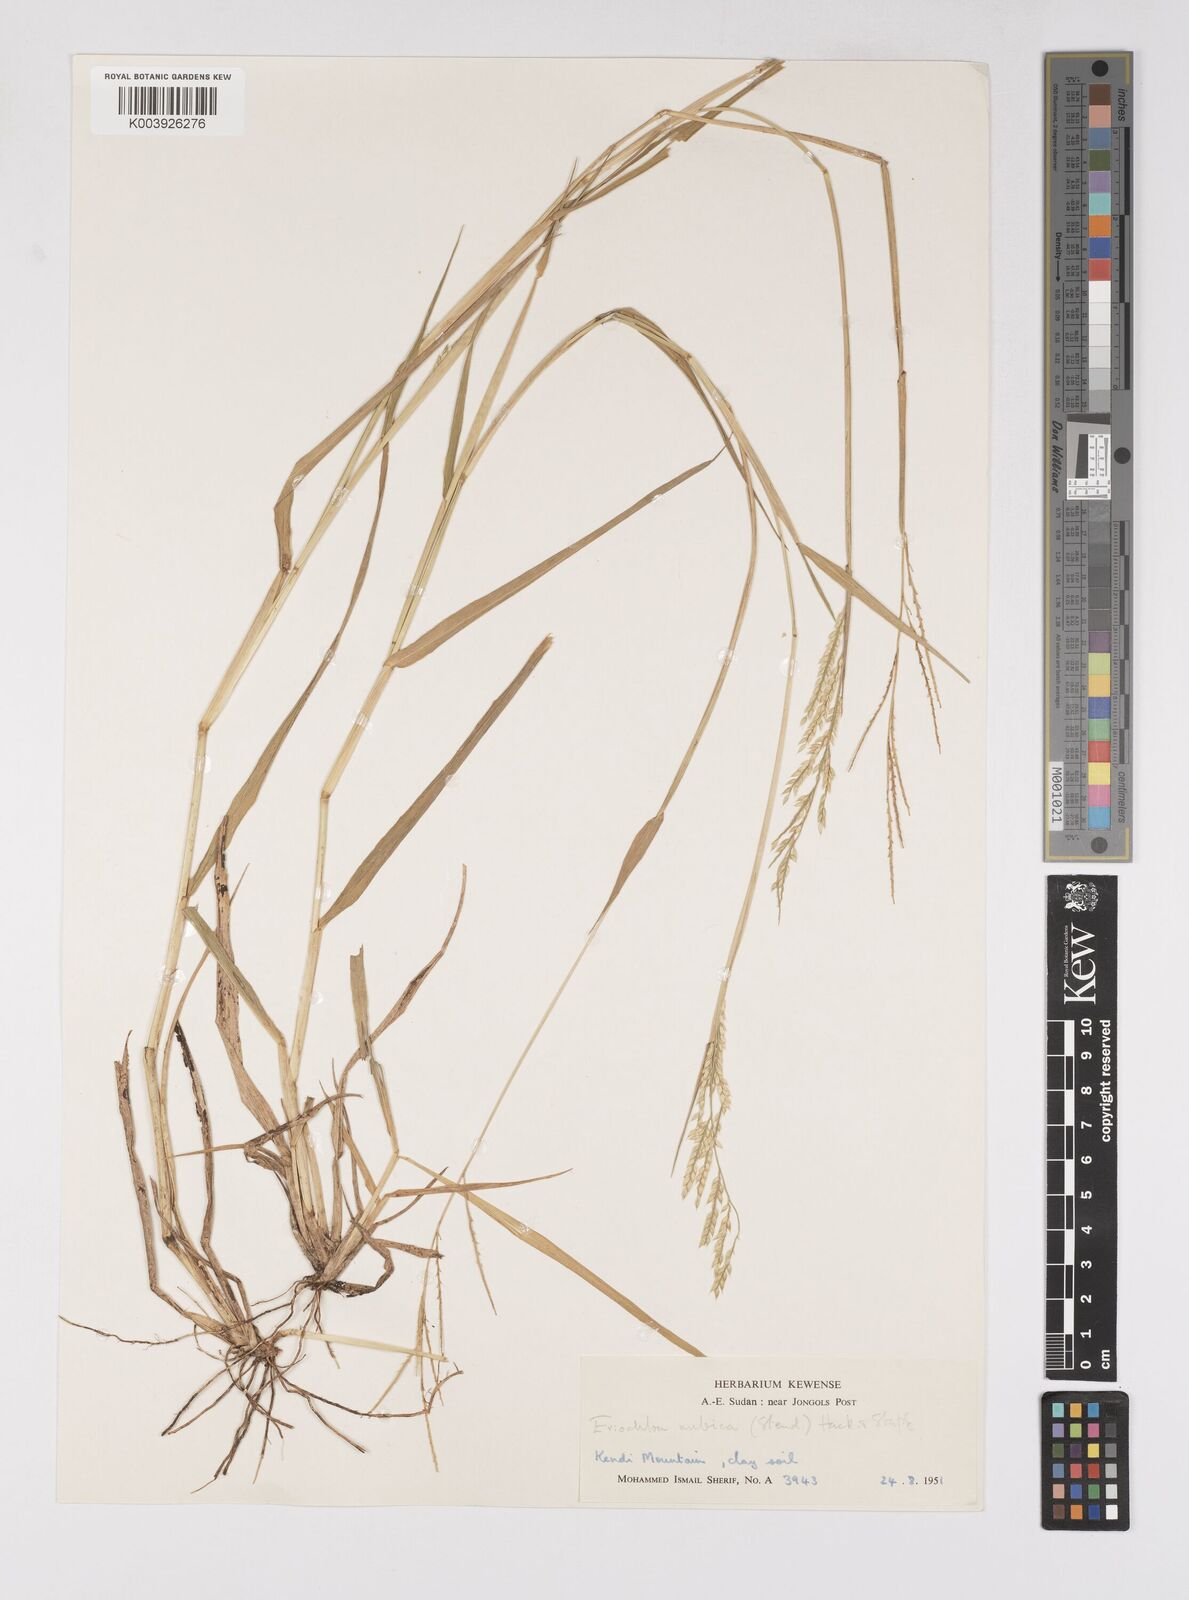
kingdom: Plantae
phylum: Tracheophyta
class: Liliopsida
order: Poales
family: Poaceae
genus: Eriochloa
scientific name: Eriochloa barbatus
